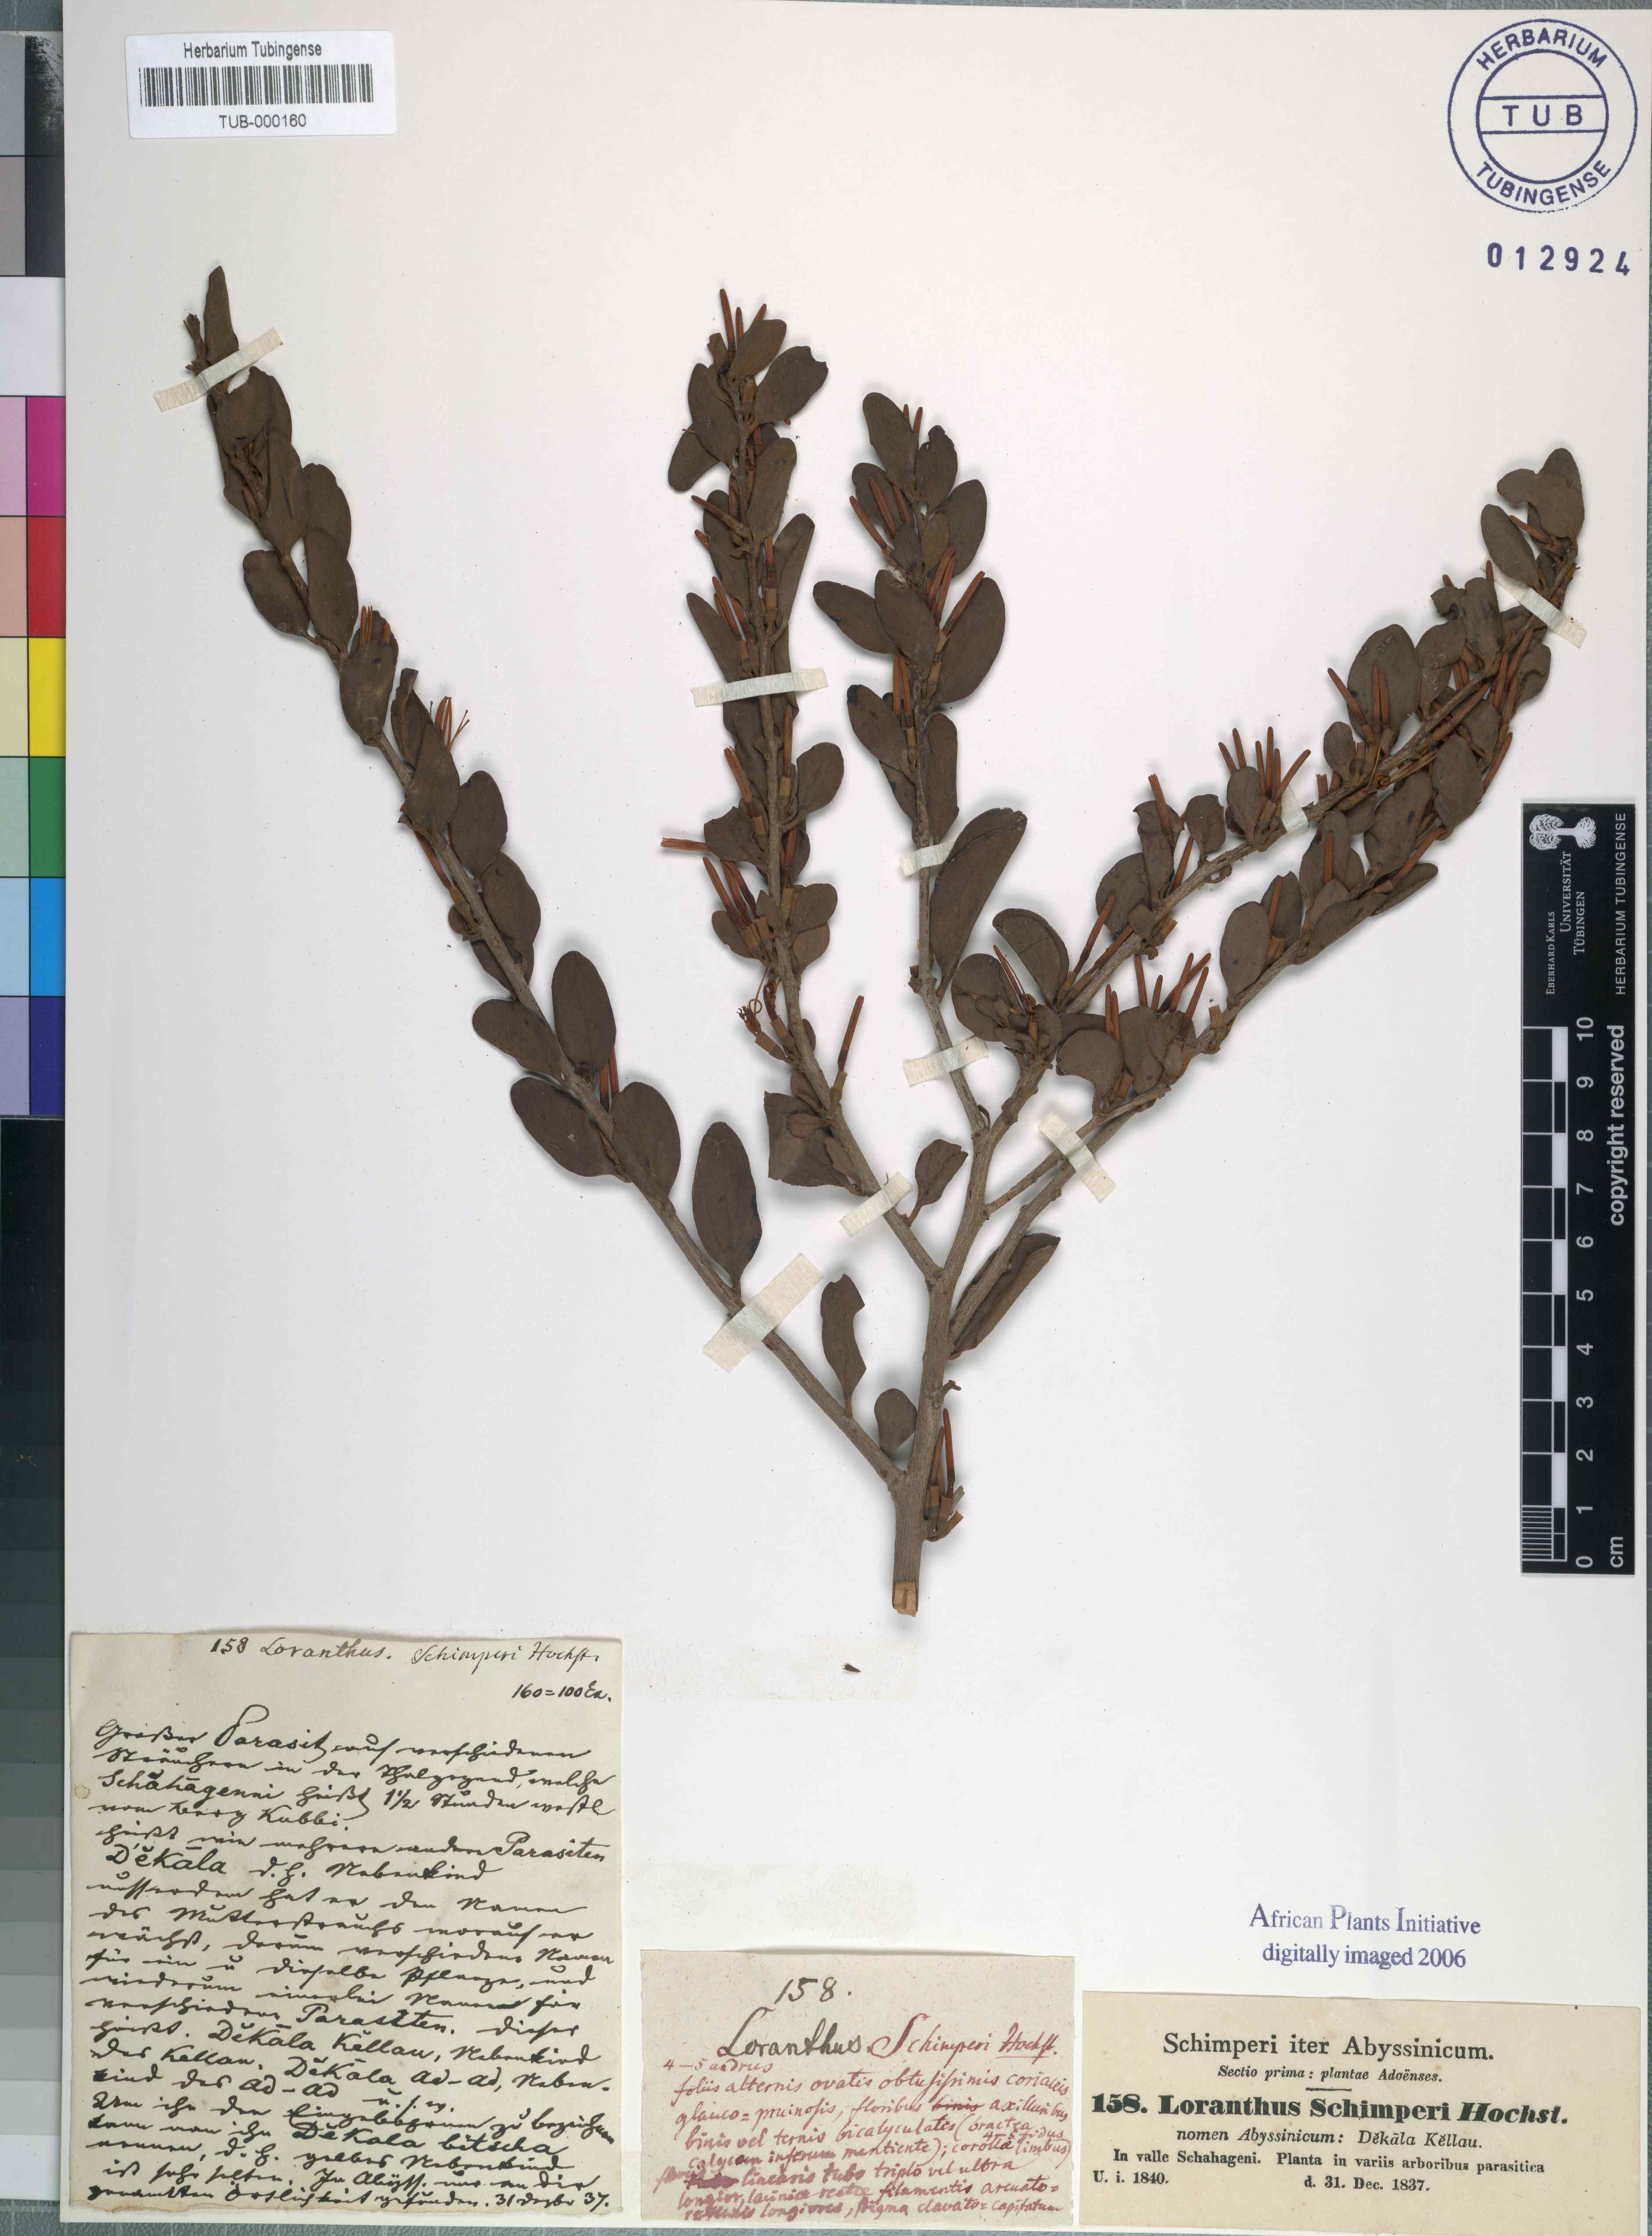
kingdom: Plantae
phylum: Tracheophyta
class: Magnoliopsida
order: Santalales
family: Loranthaceae
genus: Loranthus
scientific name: Loranthus schimperi
